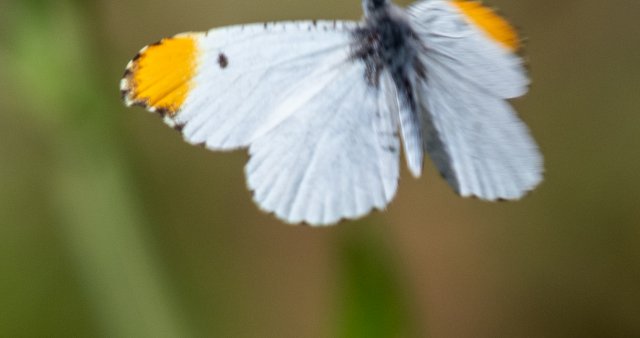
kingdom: Animalia
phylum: Arthropoda
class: Insecta
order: Lepidoptera
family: Pieridae
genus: Anthocharis
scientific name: Anthocharis midea
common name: Falcate Orangetip
